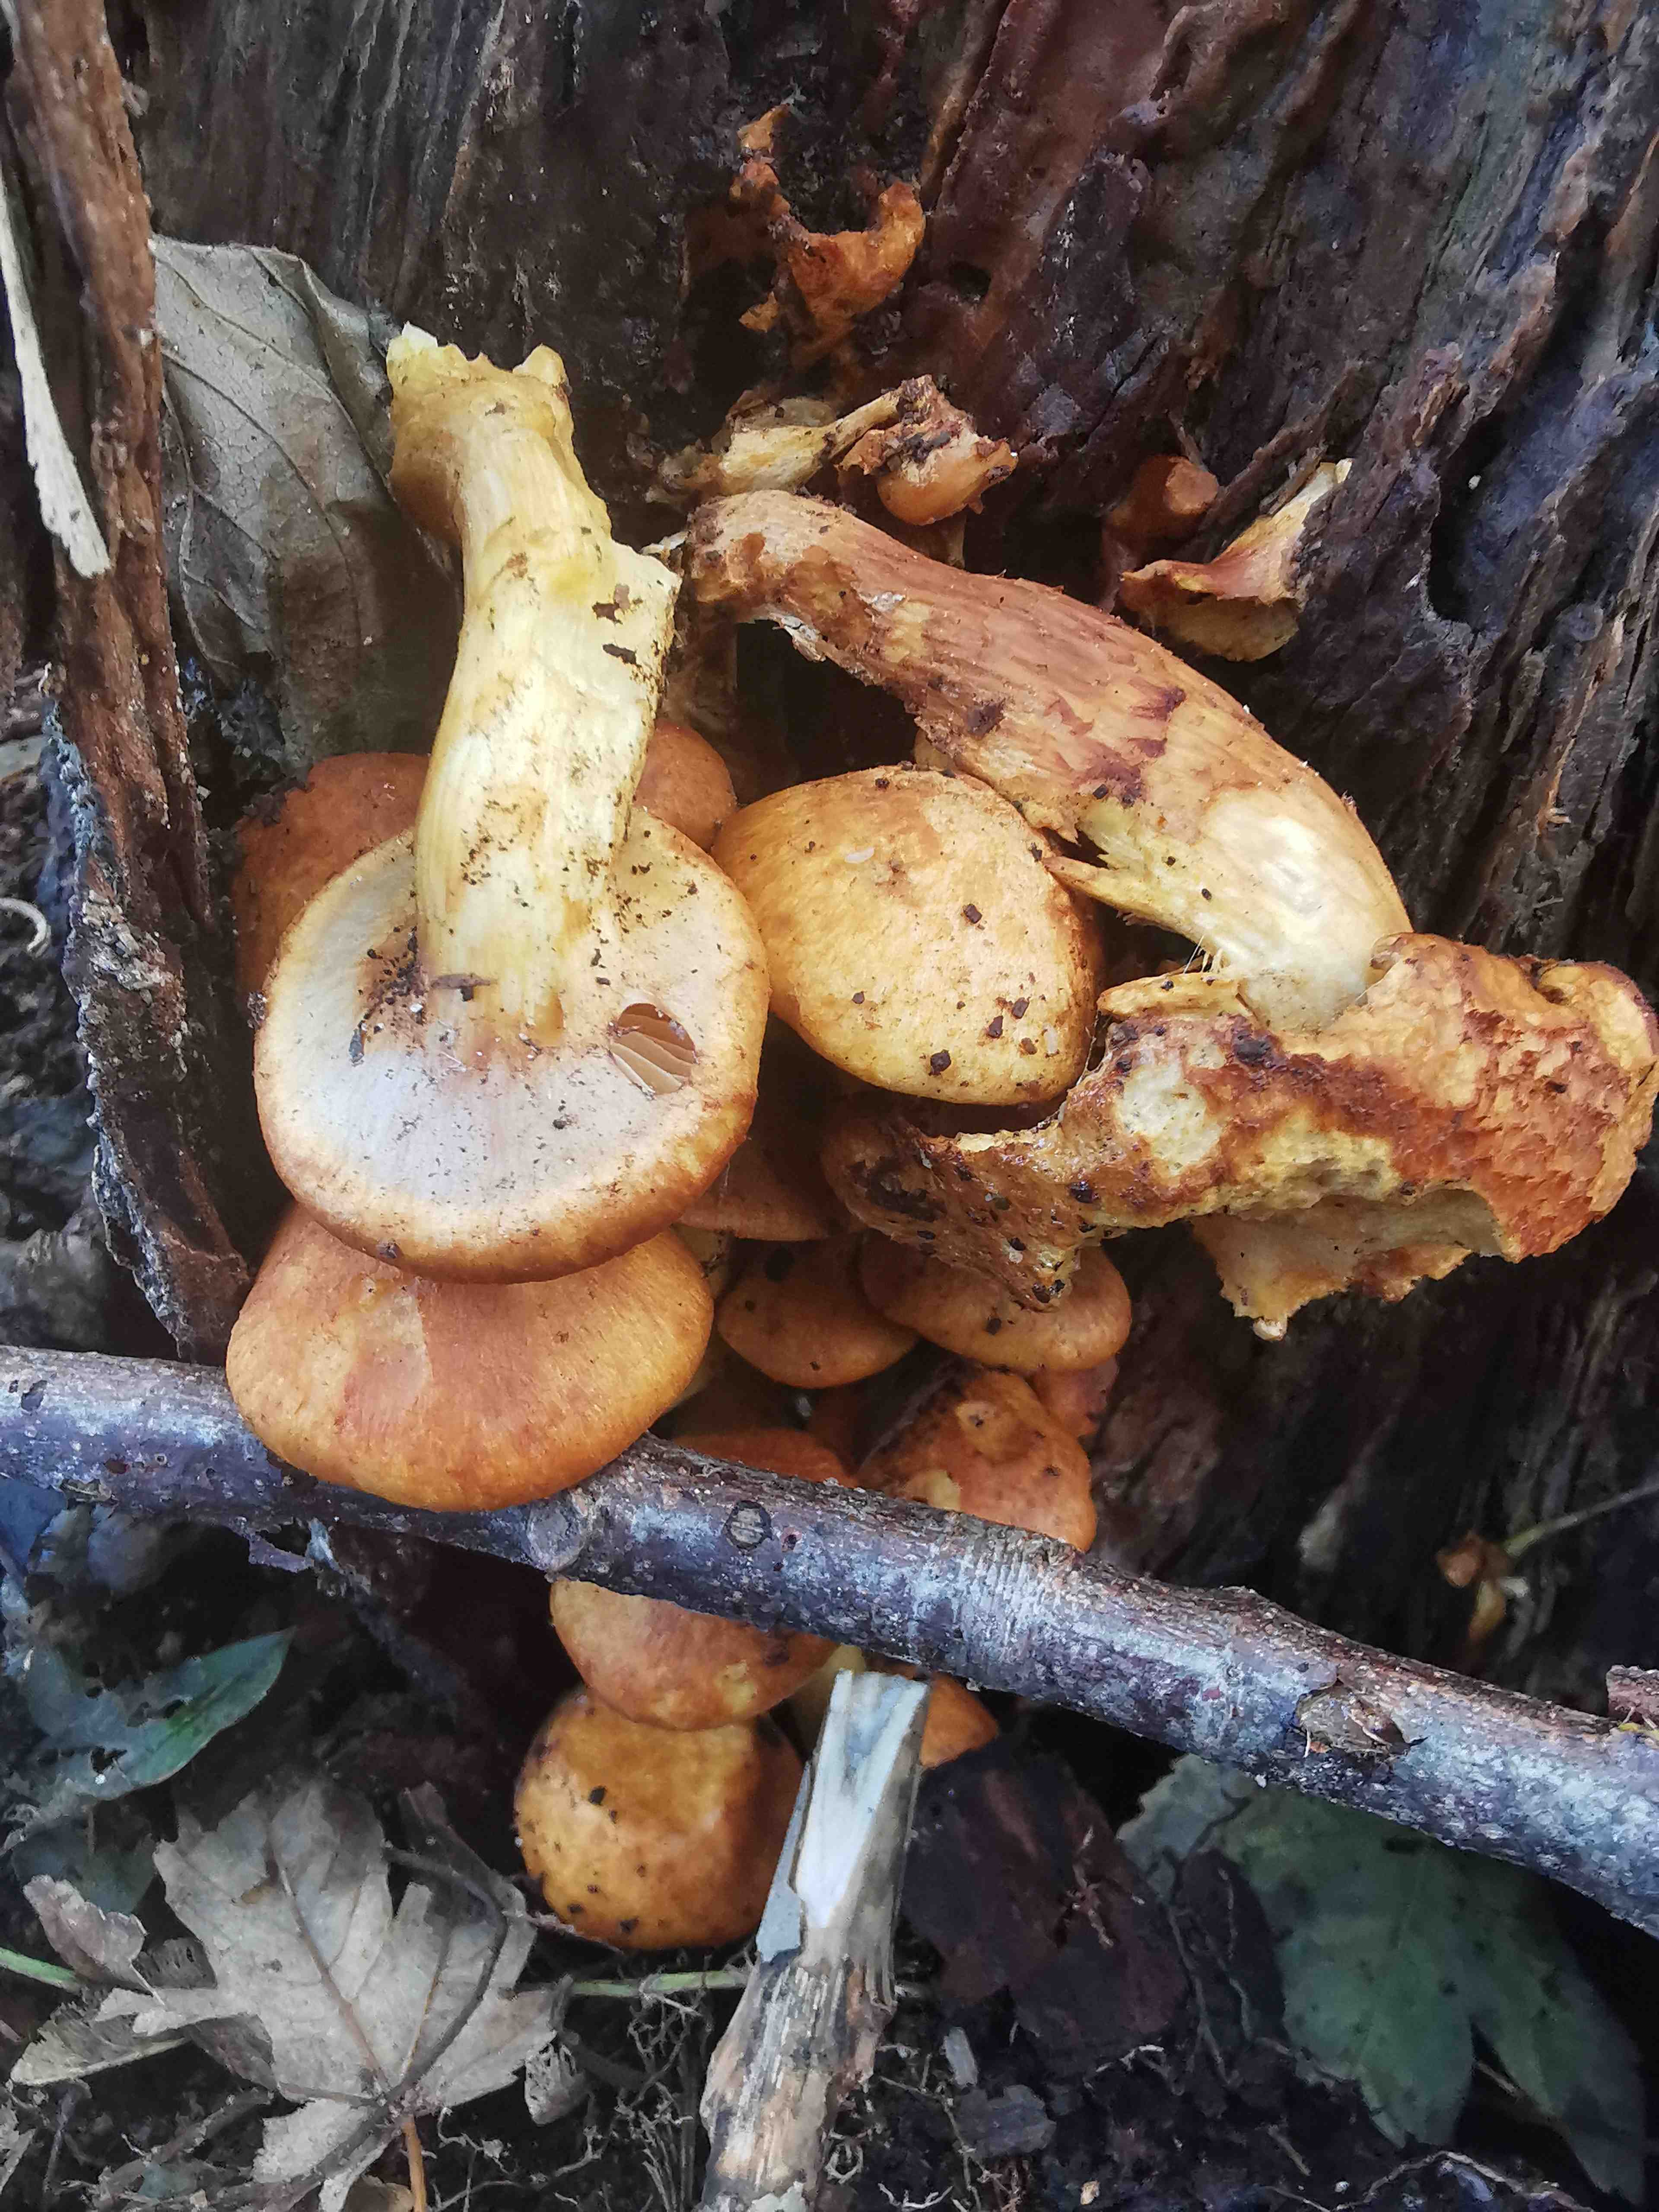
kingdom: Fungi
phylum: Basidiomycota
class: Agaricomycetes
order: Agaricales
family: Hymenogastraceae
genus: Gymnopilus
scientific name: Gymnopilus spectabilis
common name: fibret flammehat
